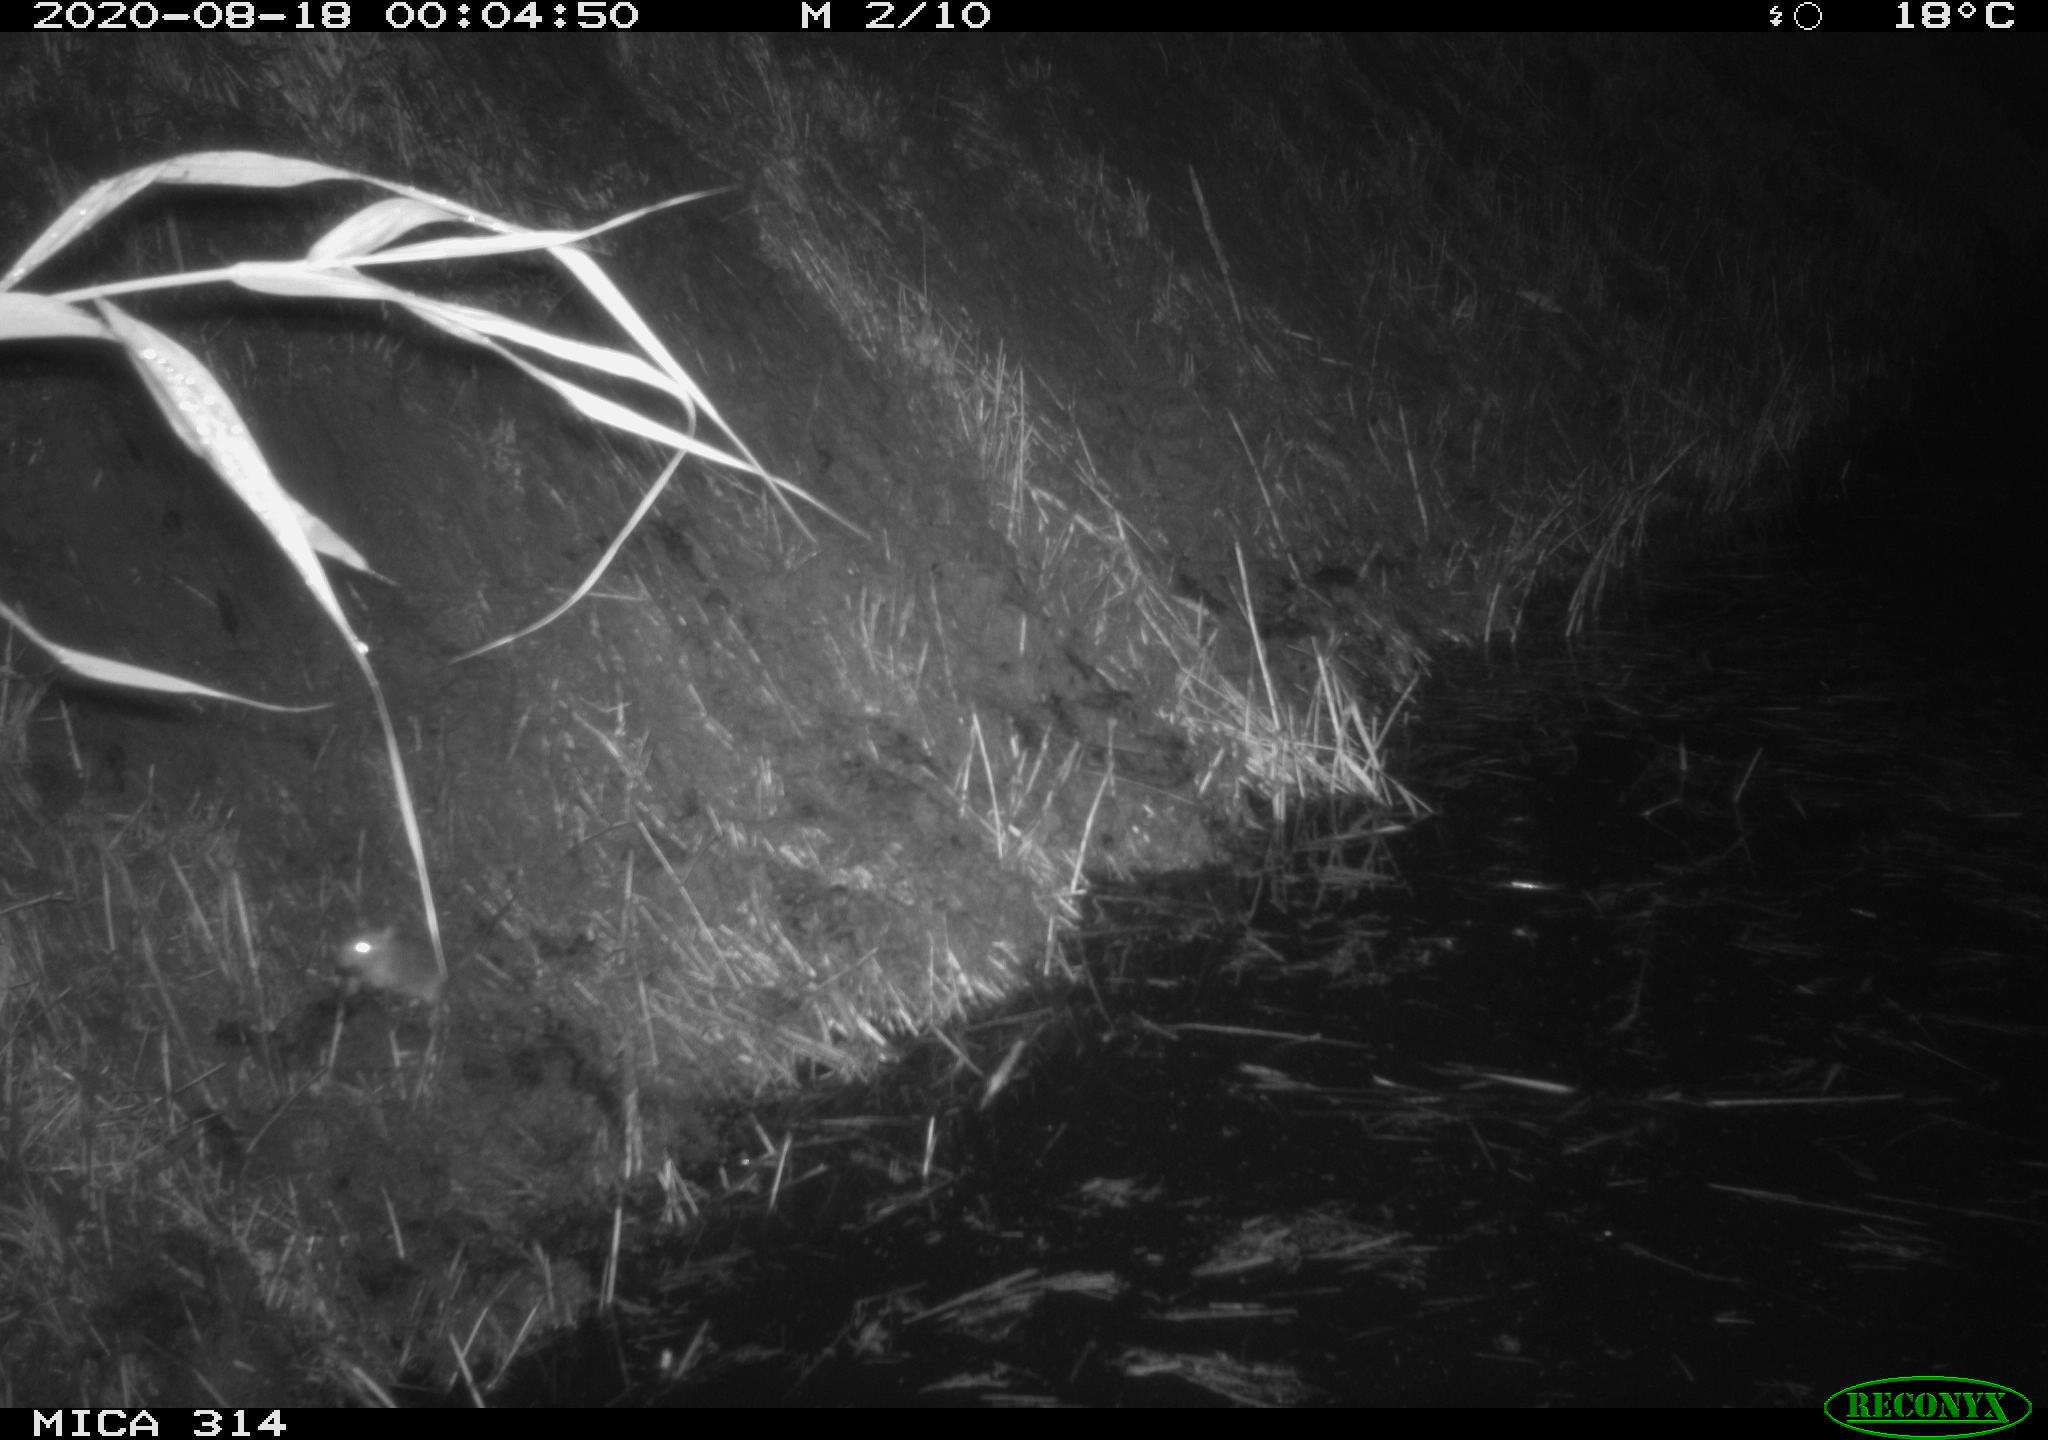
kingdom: Animalia
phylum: Chordata
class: Mammalia
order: Rodentia
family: Muridae
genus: Rattus
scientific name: Rattus norvegicus
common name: Brown rat
